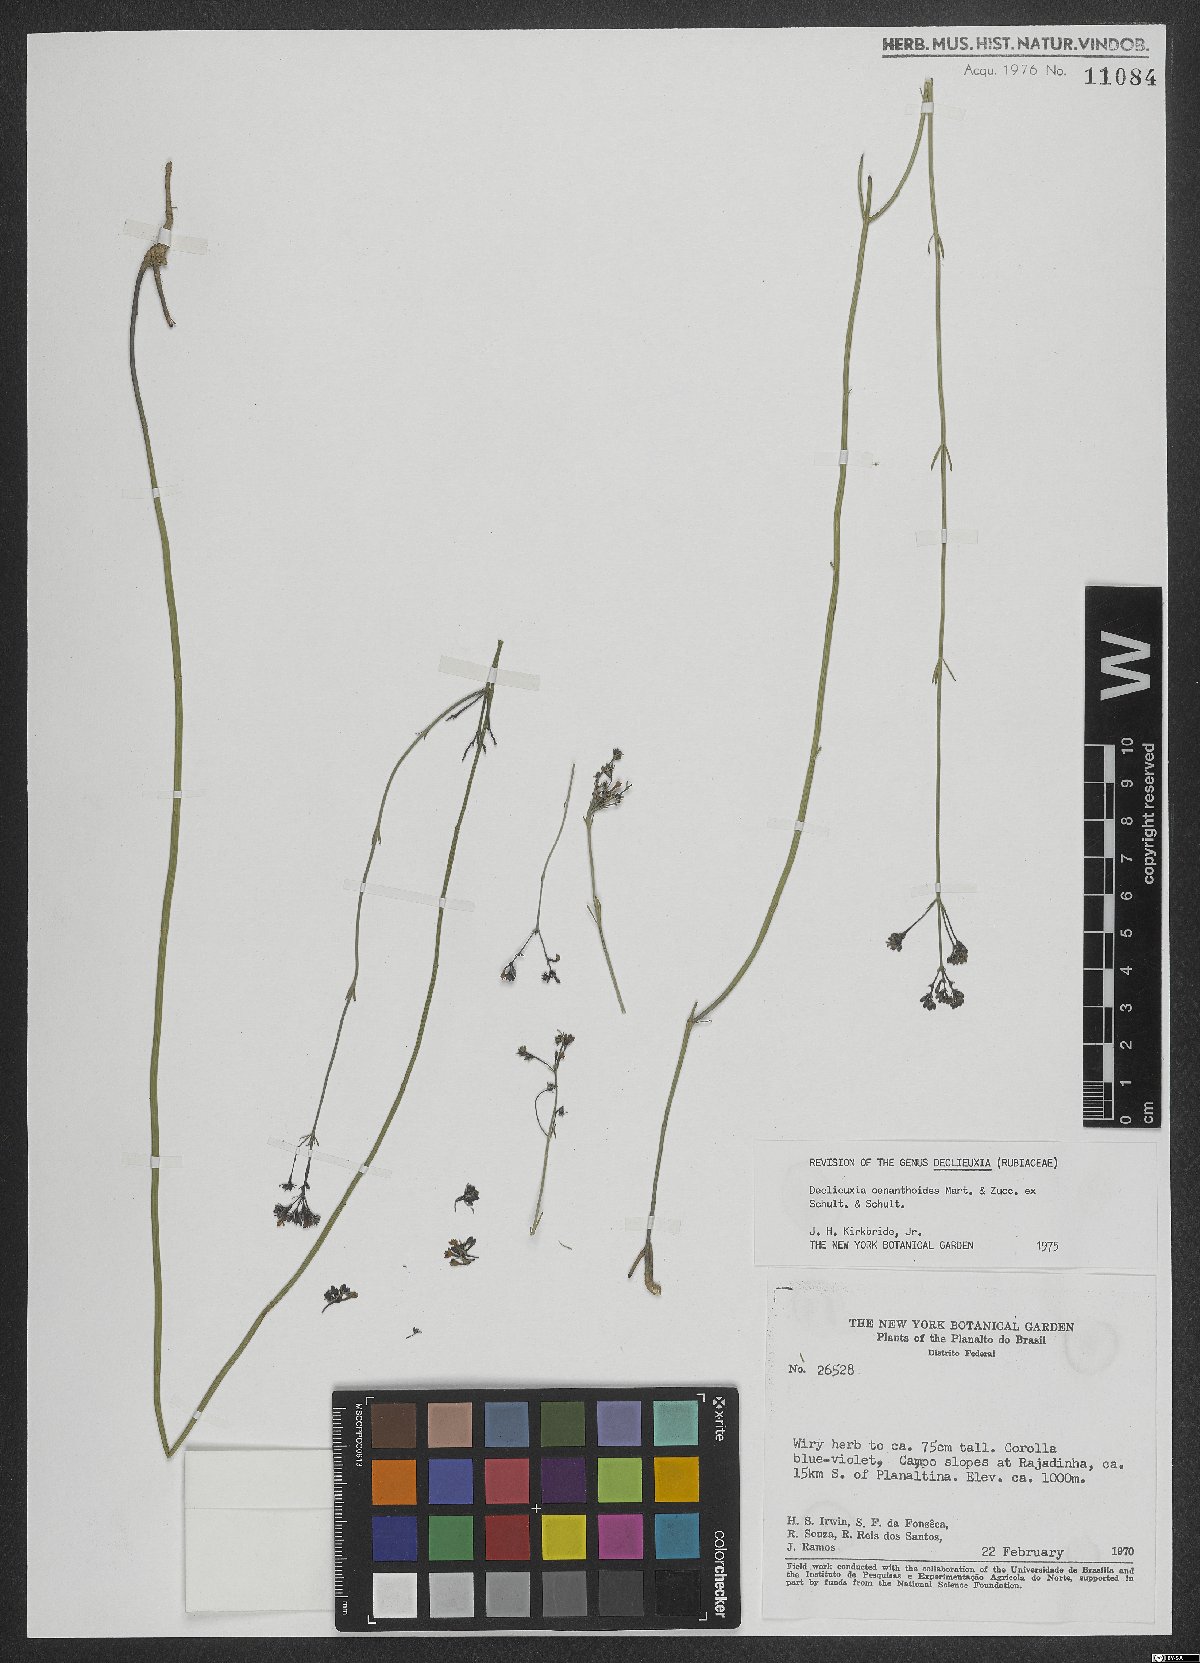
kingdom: Plantae
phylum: Tracheophyta
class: Magnoliopsida
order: Gentianales
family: Rubiaceae
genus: Declieuxia
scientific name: Declieuxia oenanthoides
